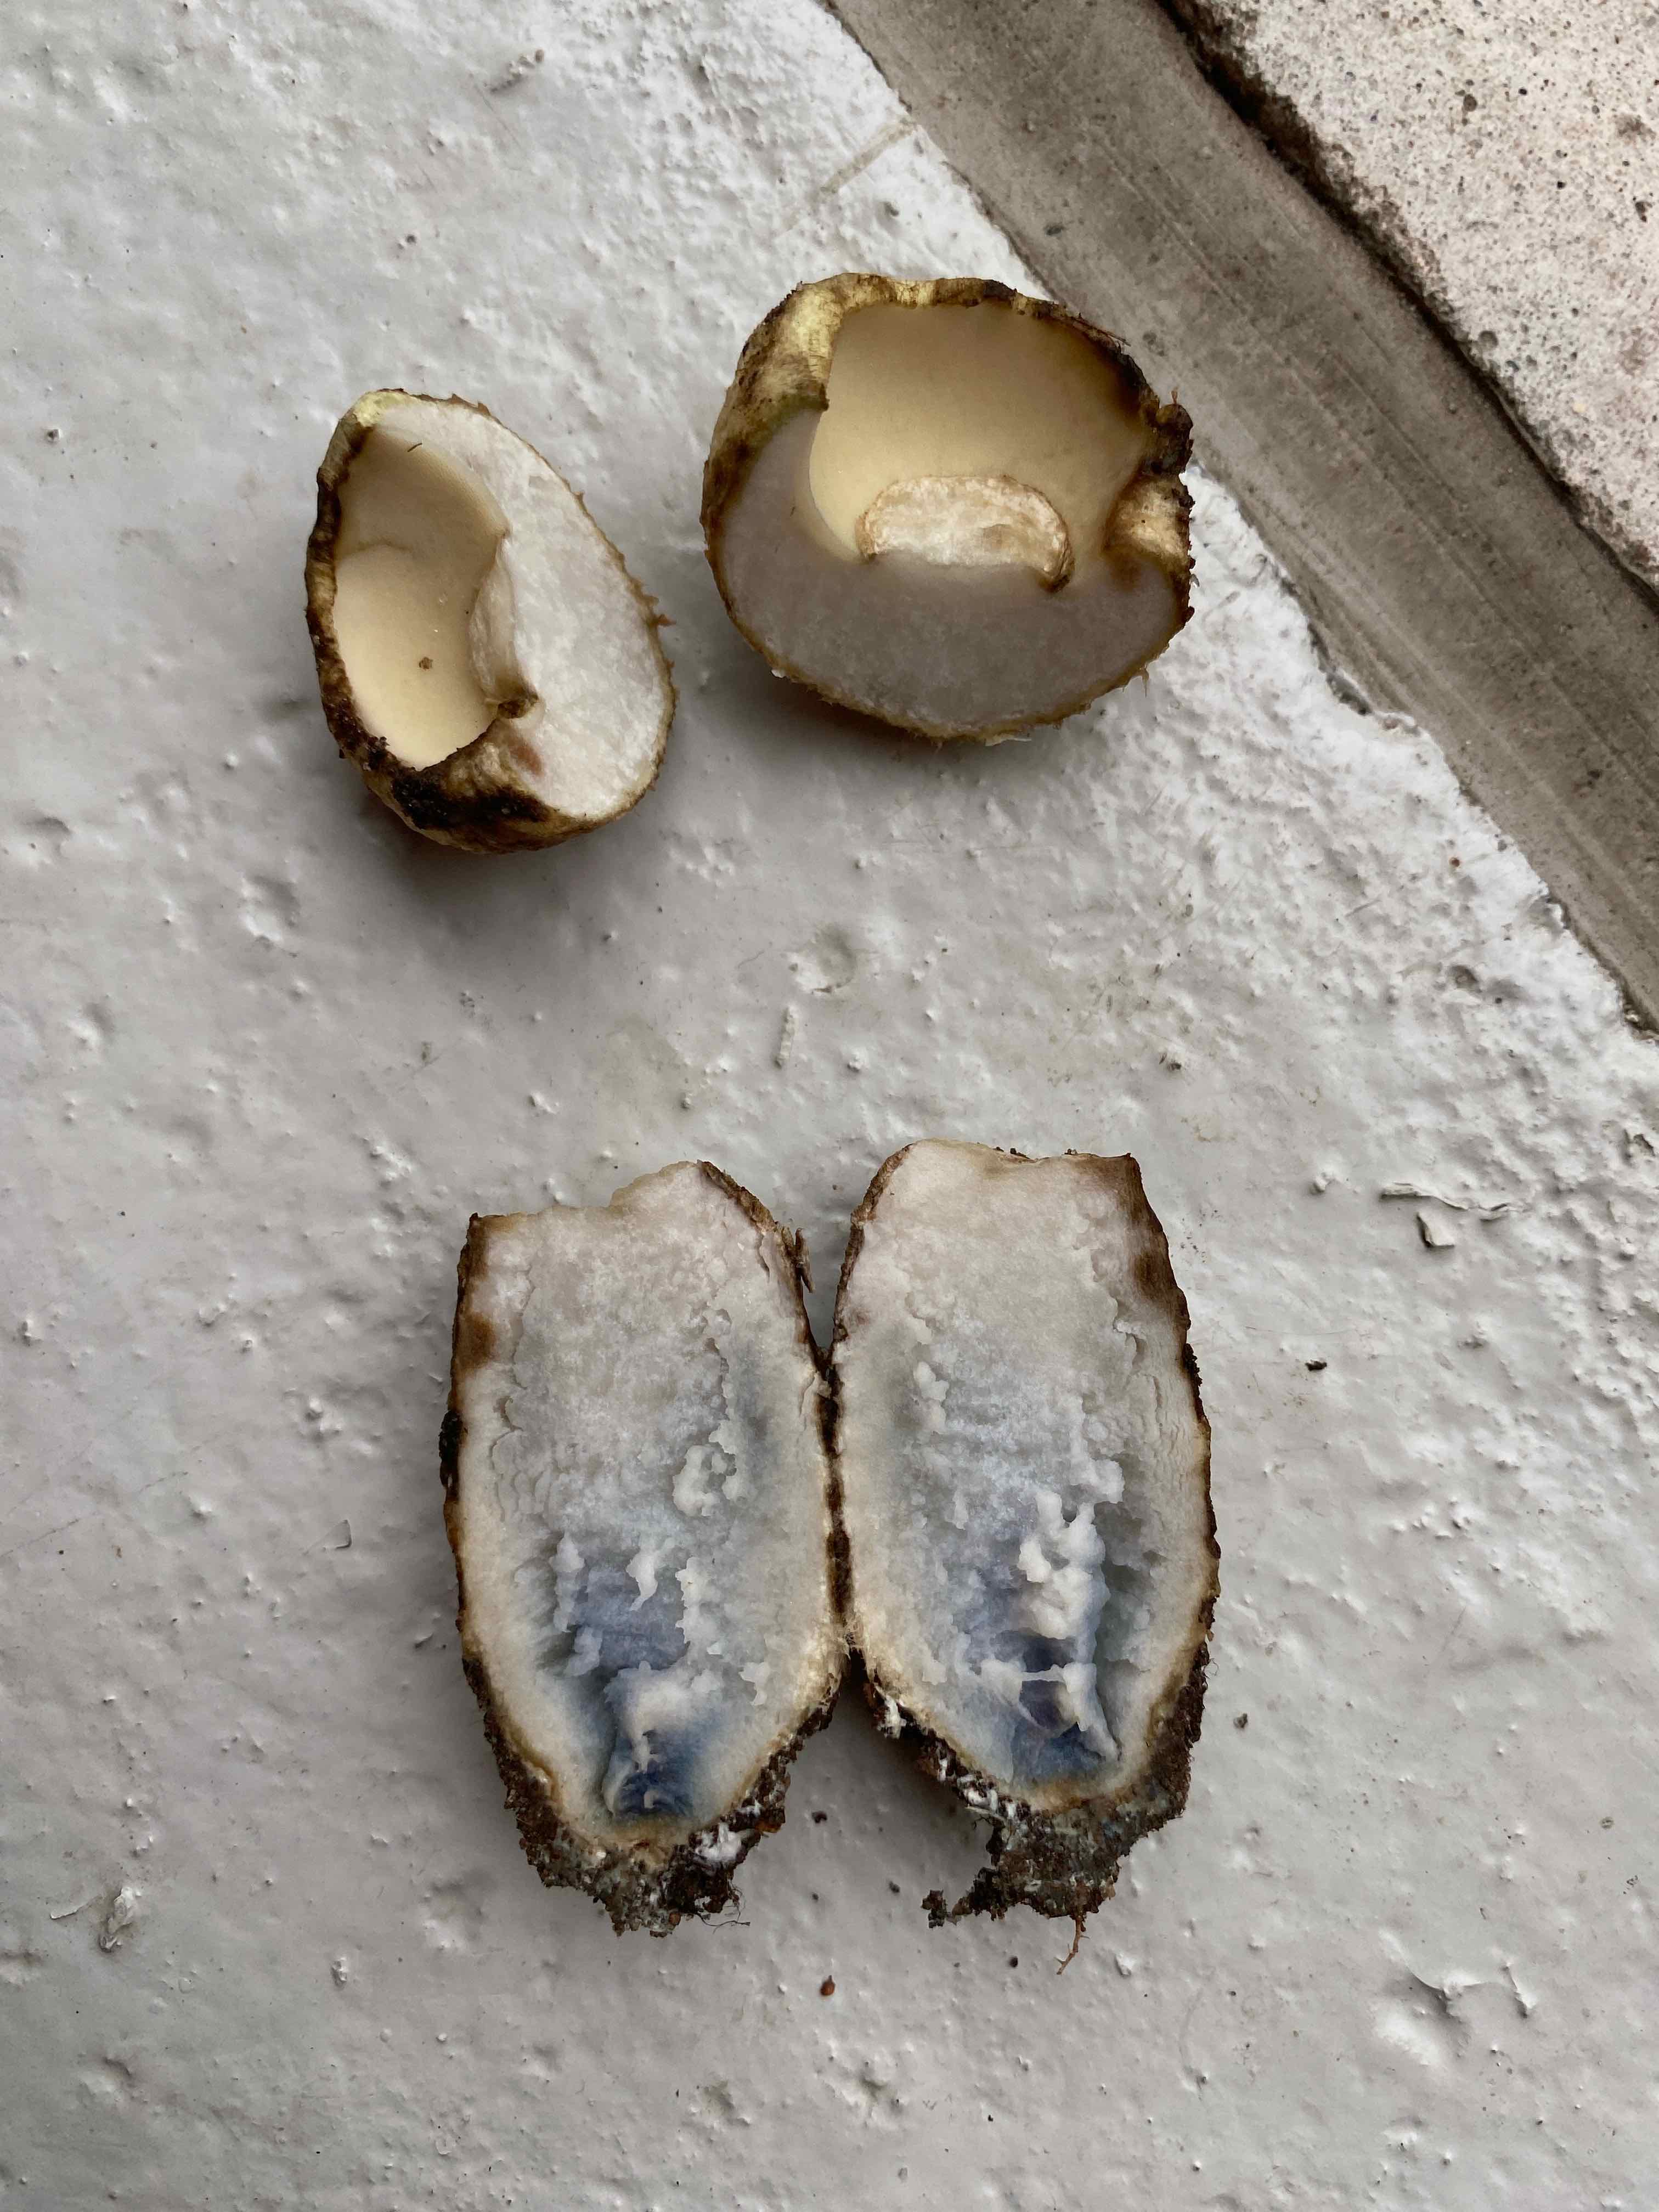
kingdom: Fungi
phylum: Basidiomycota
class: Agaricomycetes
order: Boletales
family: Gyroporaceae
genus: Gyroporus
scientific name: Gyroporus cyanescens
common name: blånende kammerrørhat
